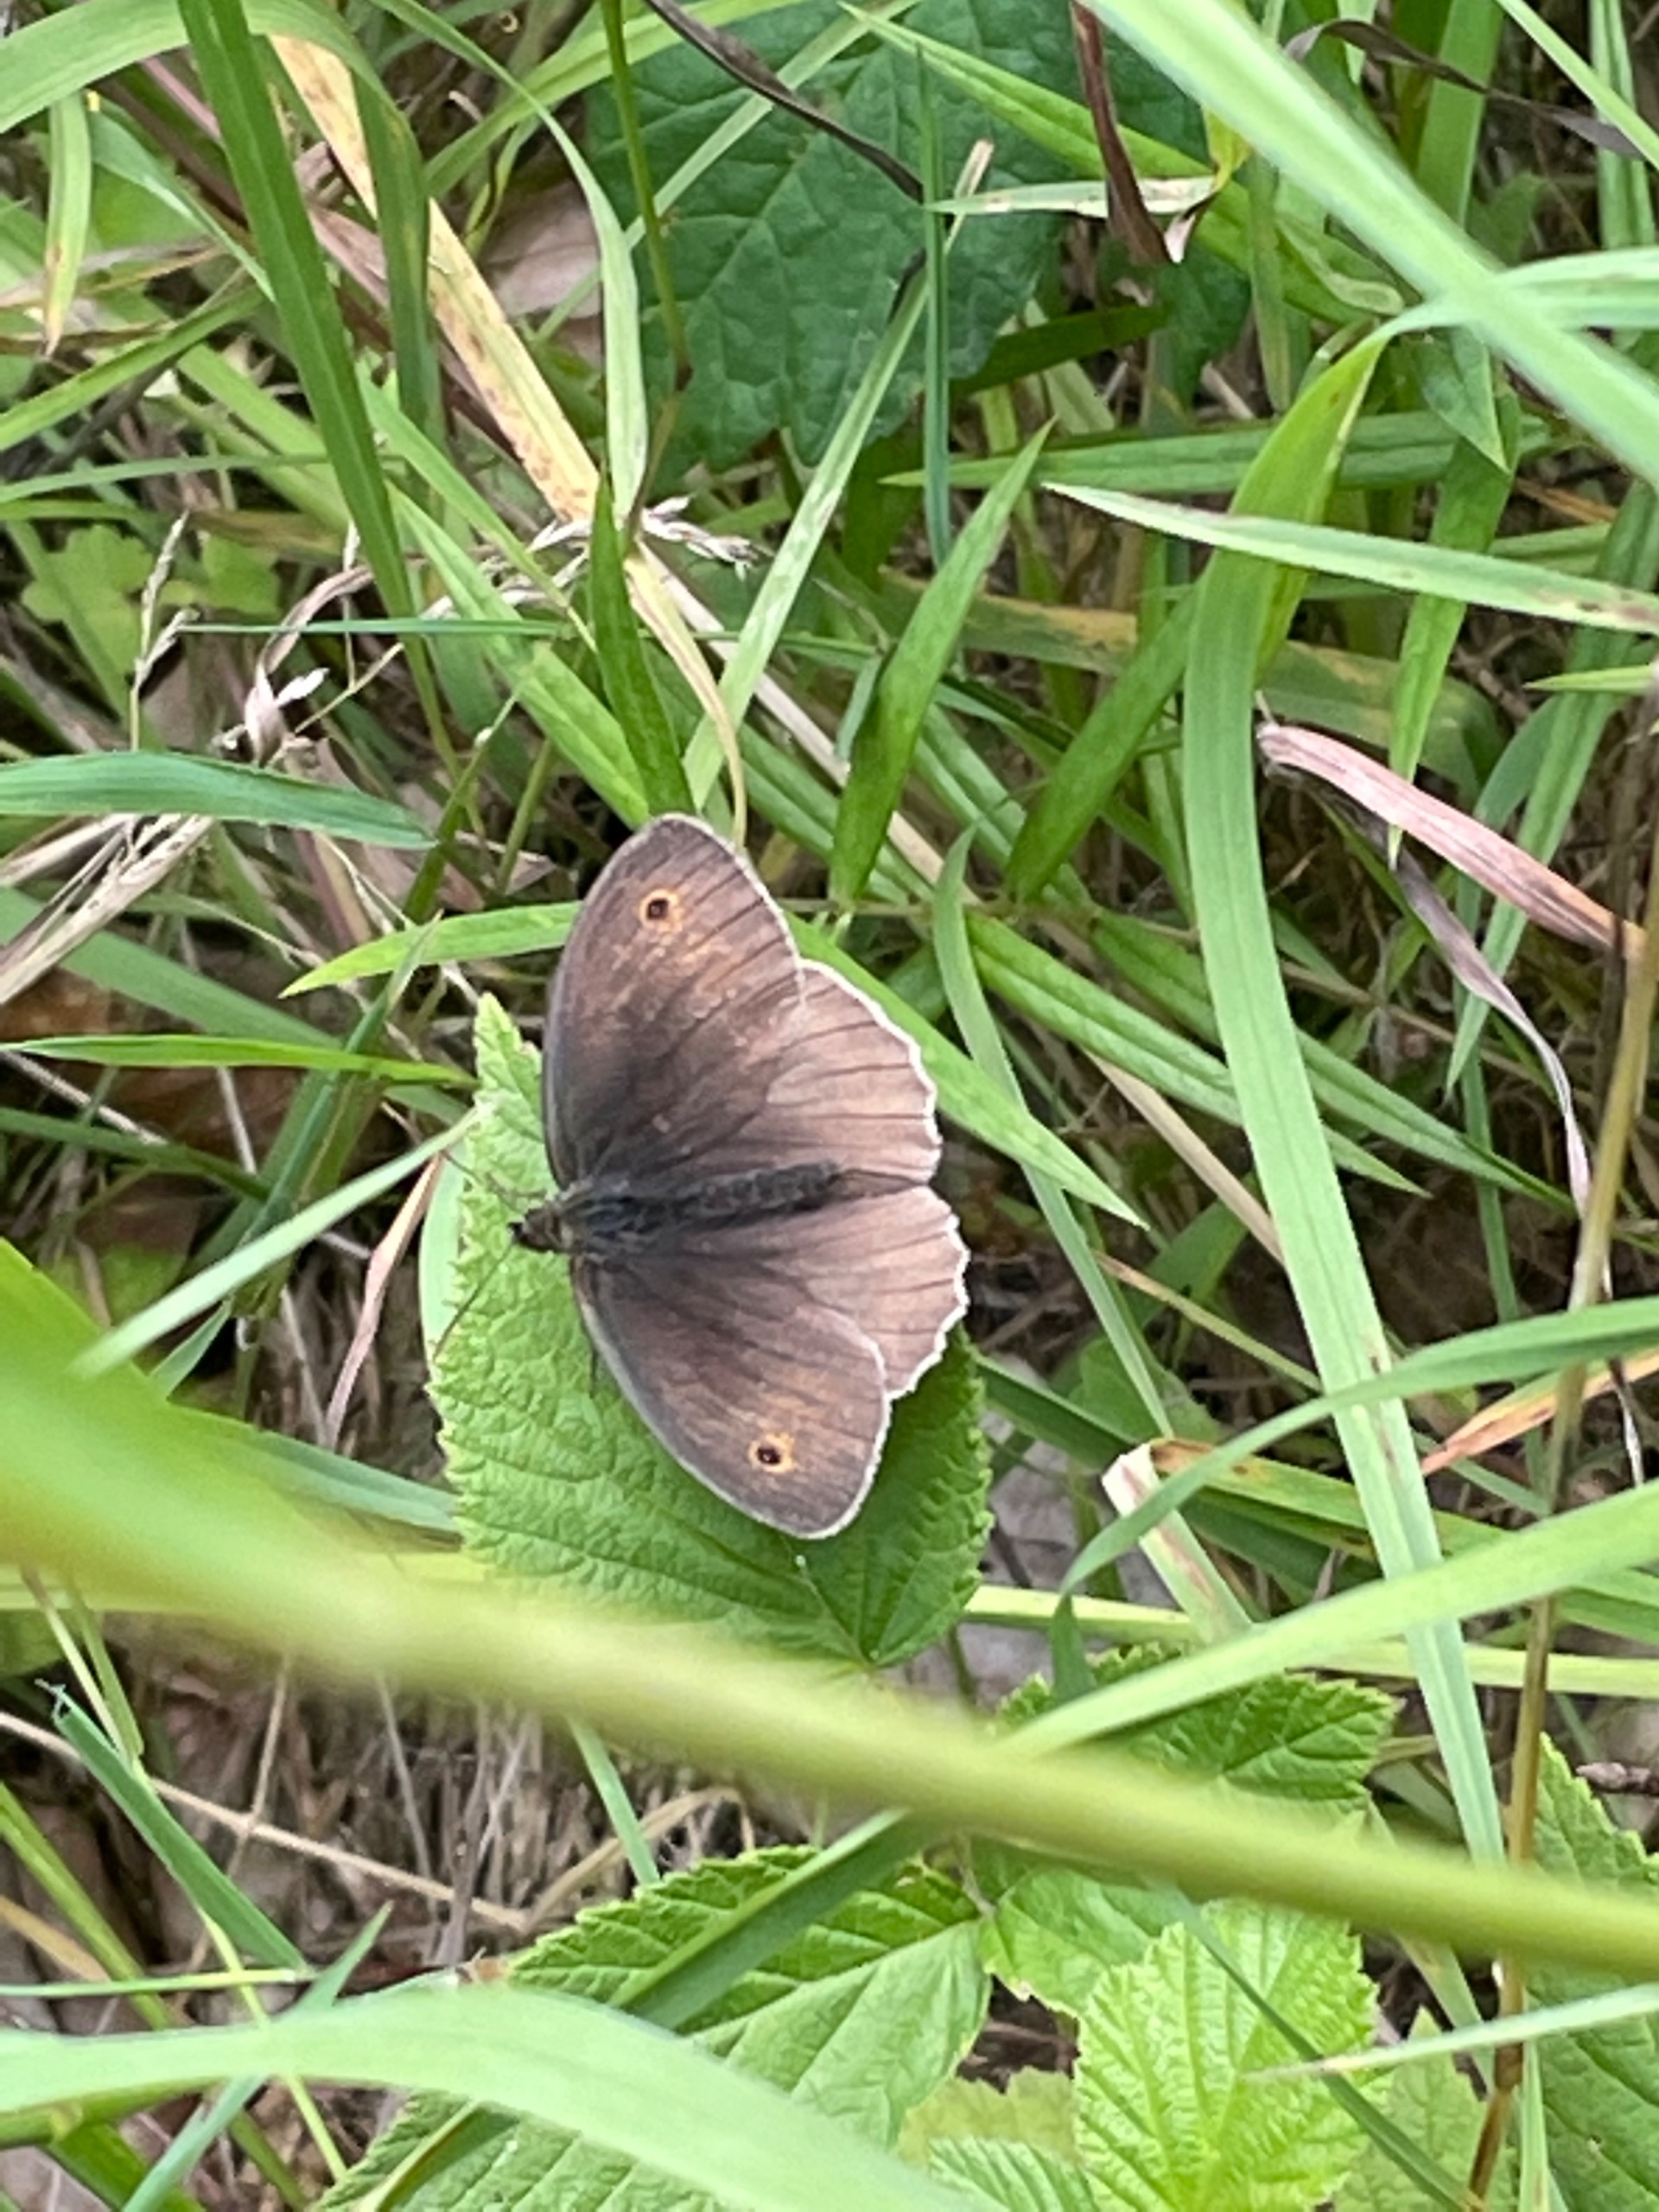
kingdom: Animalia
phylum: Arthropoda
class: Insecta
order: Lepidoptera
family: Nymphalidae
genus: Maniola
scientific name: Maniola jurtina
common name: Græsrandøje
